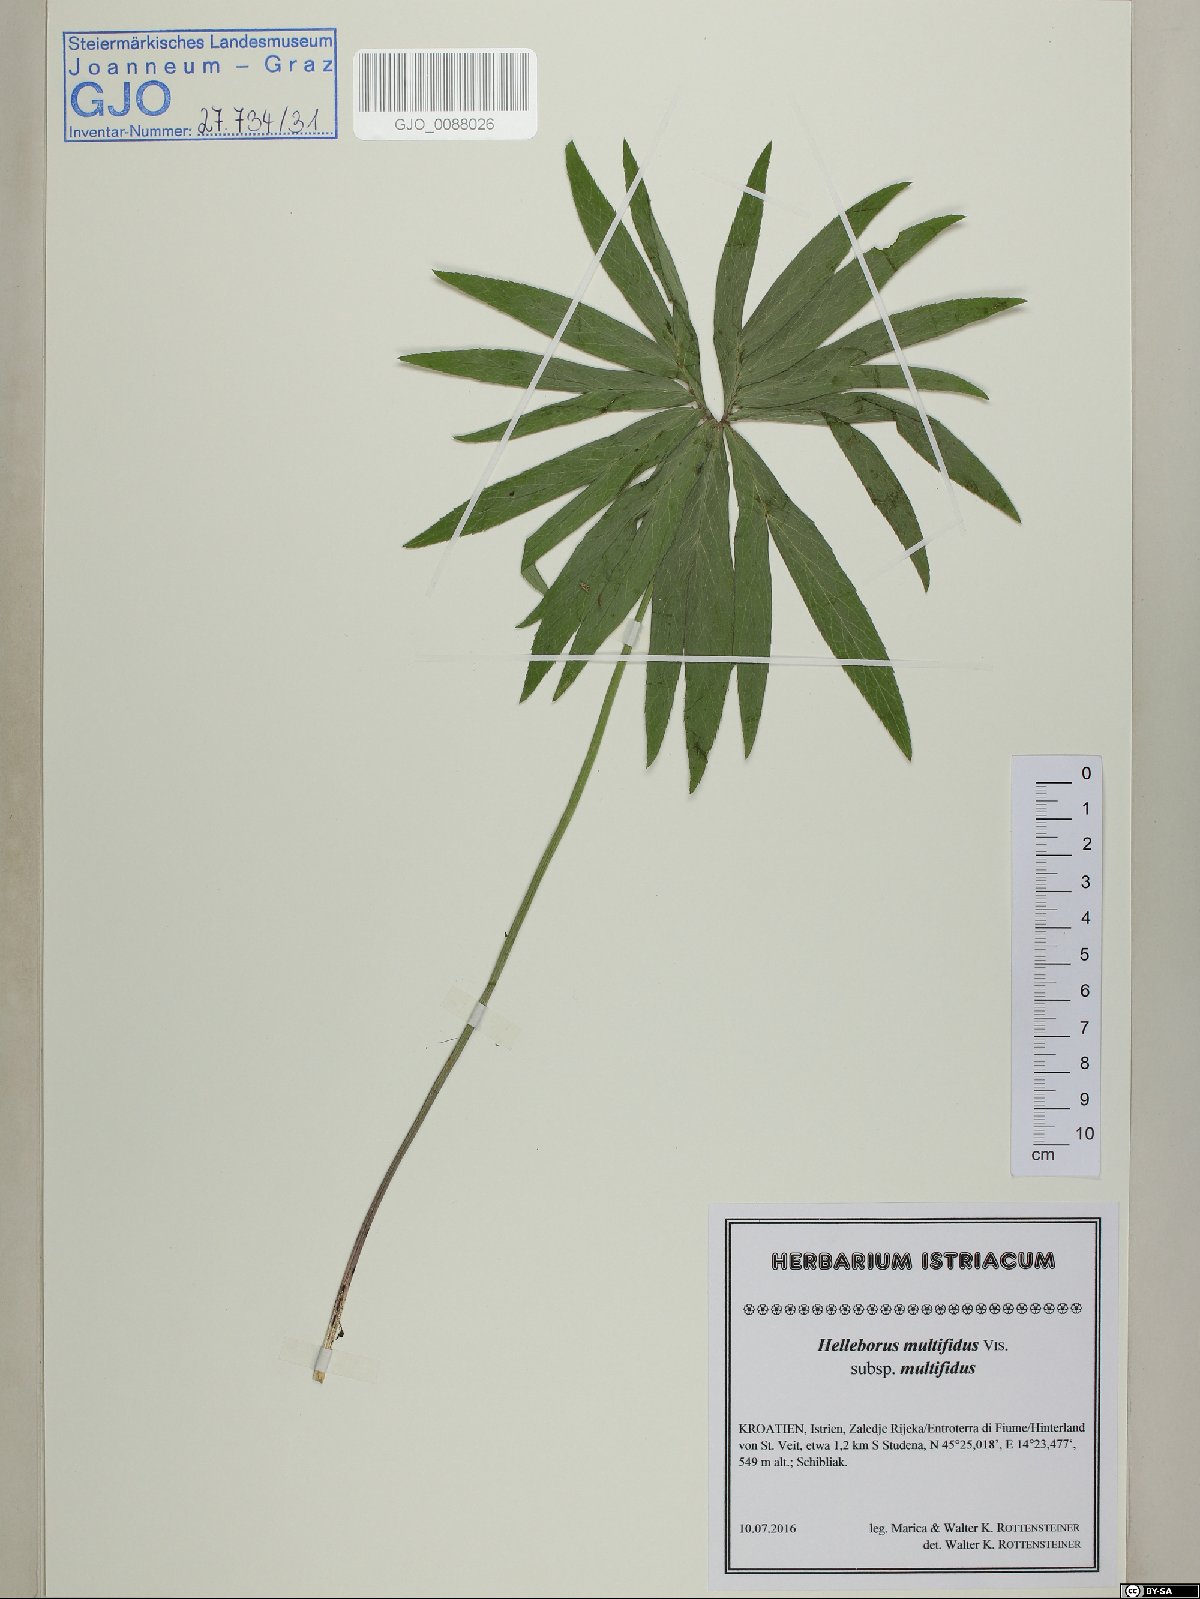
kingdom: Plantae
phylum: Tracheophyta
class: Magnoliopsida
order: Ranunculales
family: Ranunculaceae
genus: Helleborus
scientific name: Helleborus multifidus
